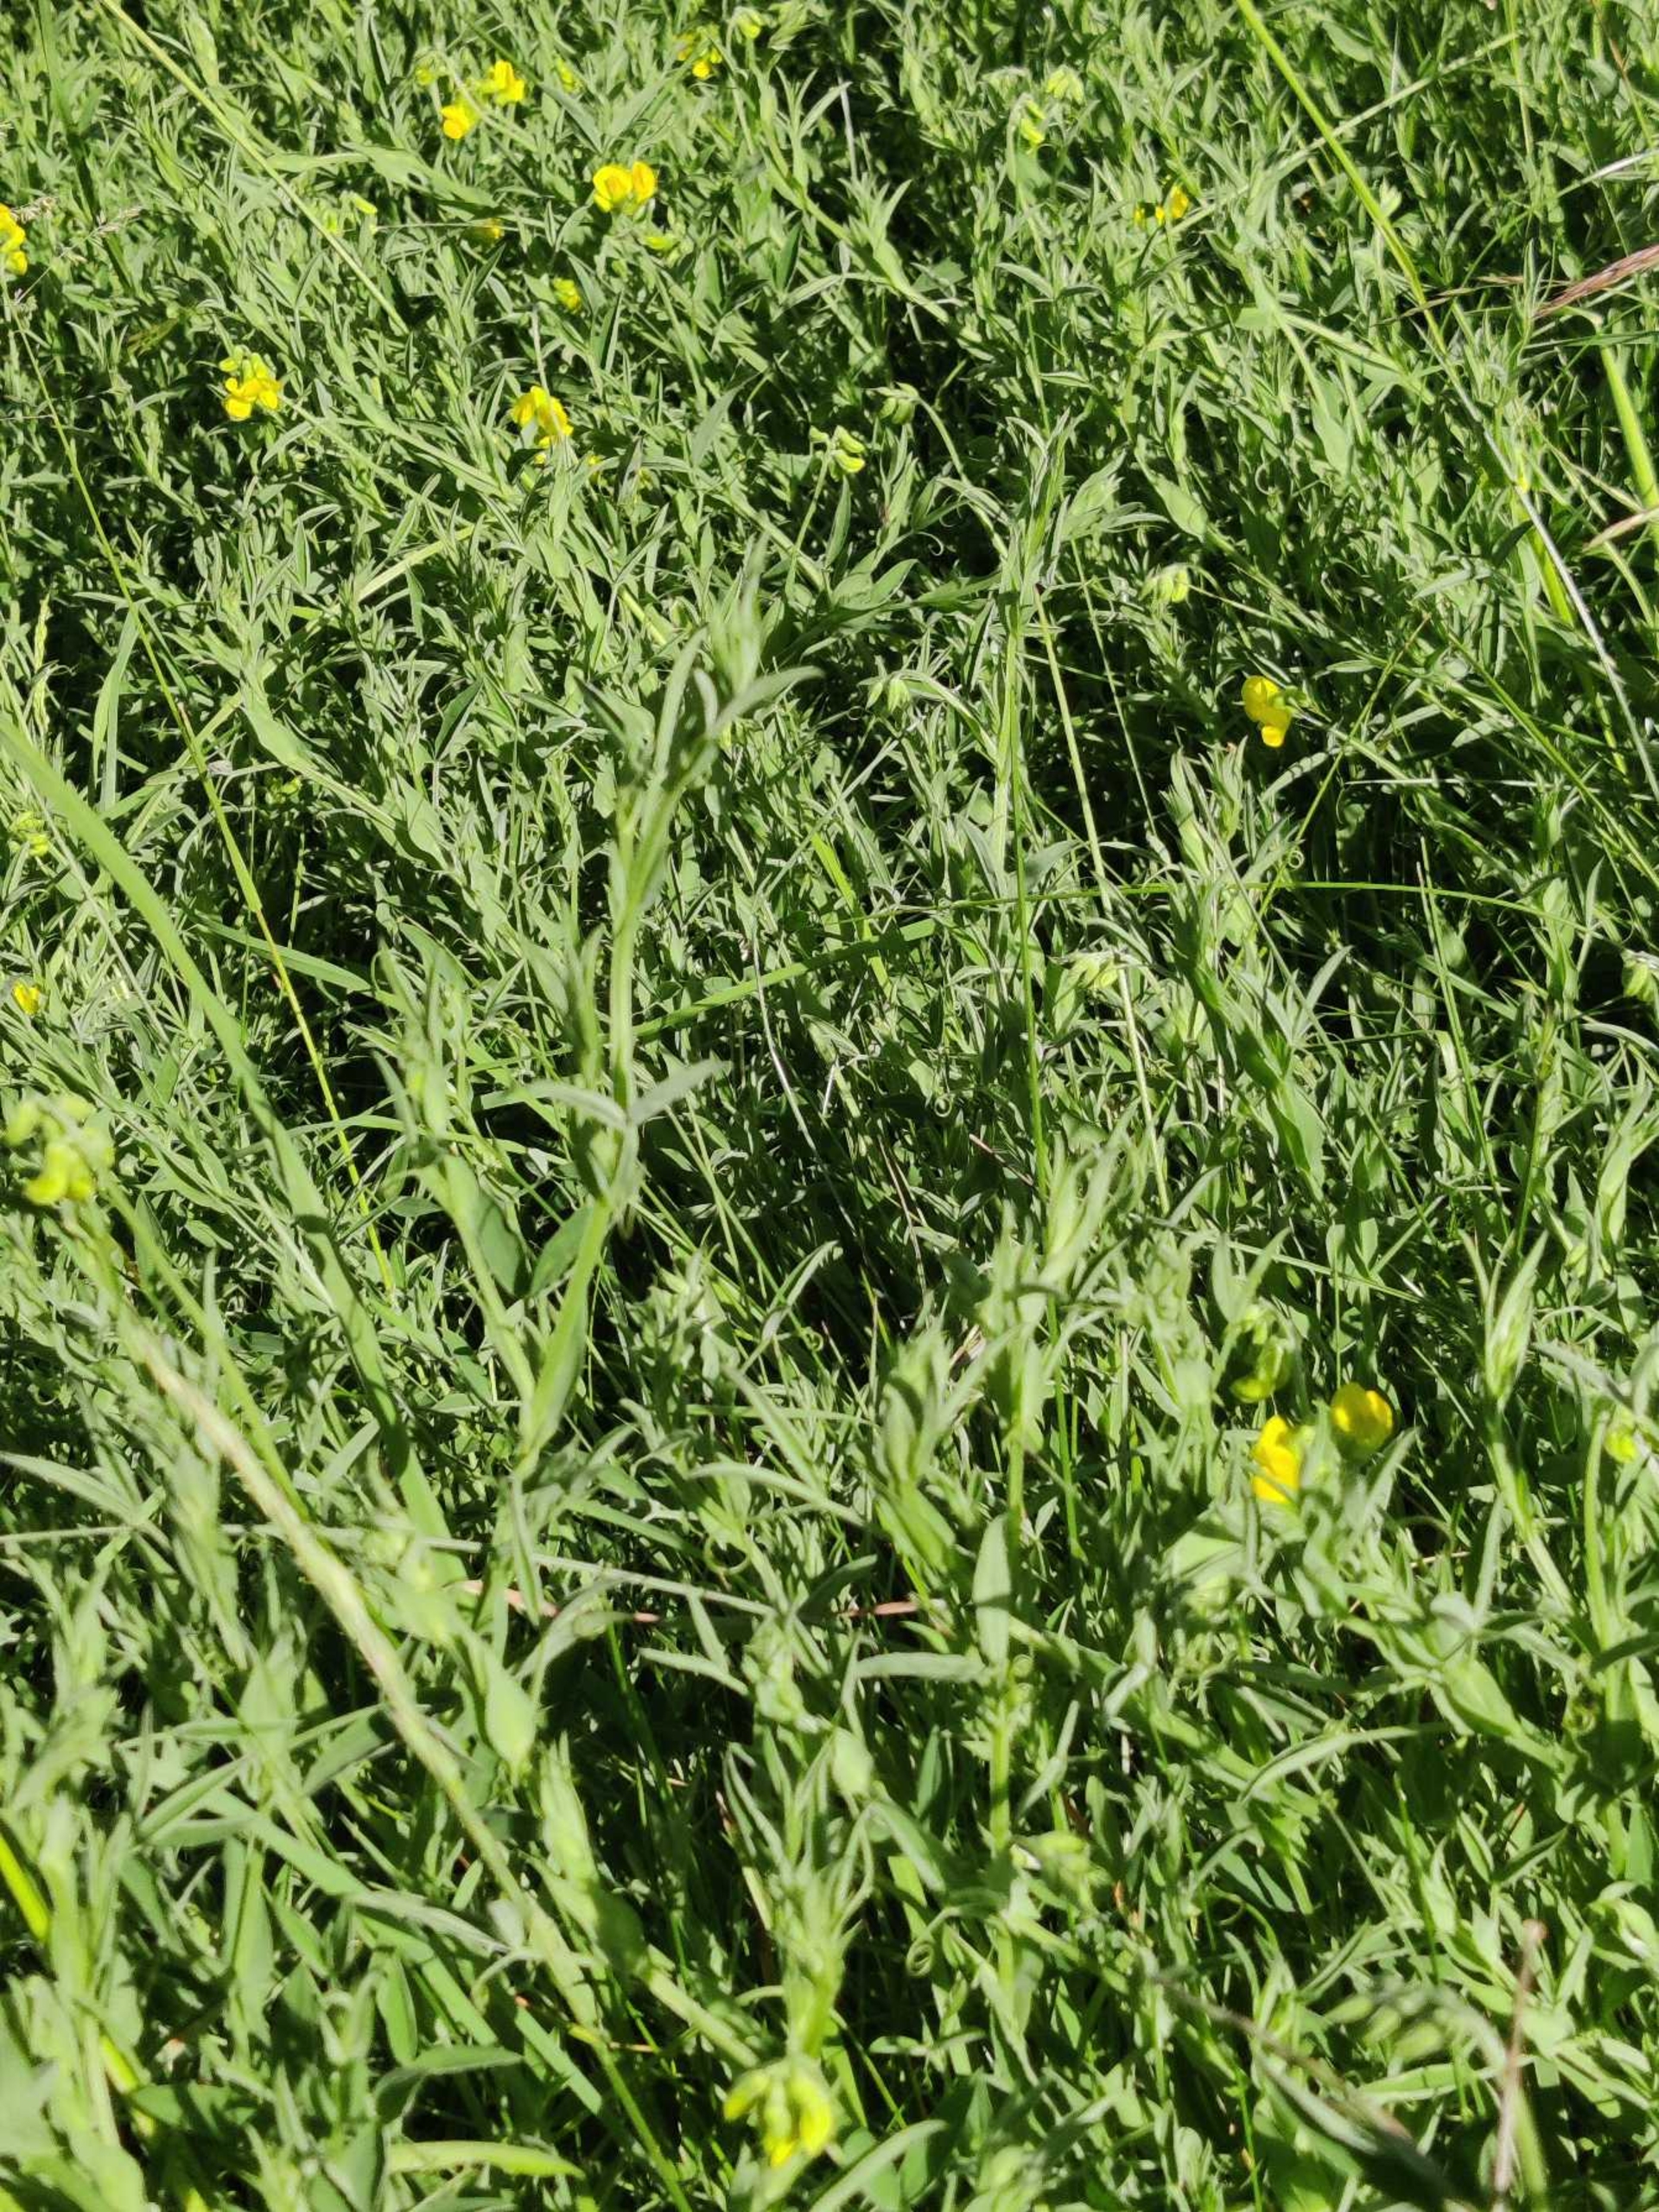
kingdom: Plantae
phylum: Tracheophyta
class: Magnoliopsida
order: Fabales
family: Fabaceae
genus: Lathyrus
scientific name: Lathyrus pratensis
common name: Gul fladbælg
